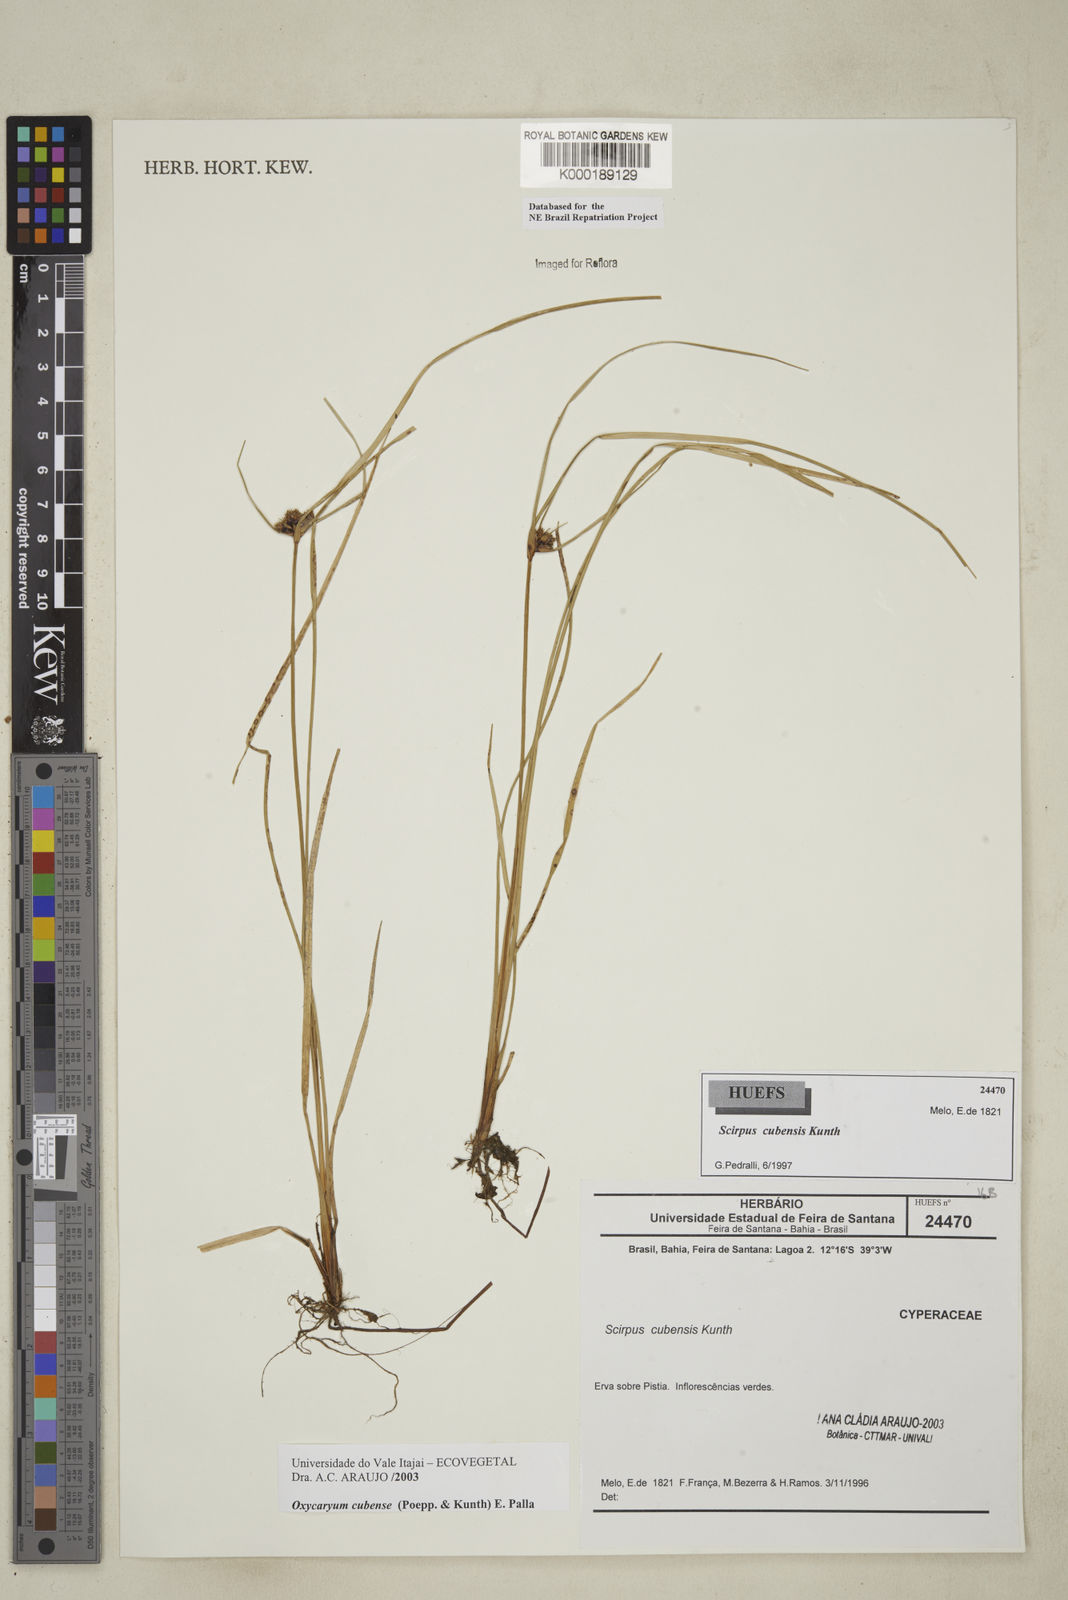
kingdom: Plantae
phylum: Tracheophyta
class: Liliopsida
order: Poales
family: Cyperaceae
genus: Cyperus
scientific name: Cyperus blepharoleptos
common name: Cuban bulrush
